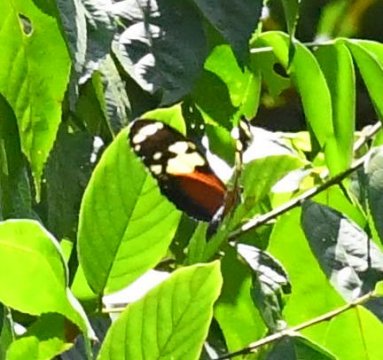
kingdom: Animalia
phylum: Arthropoda
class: Insecta
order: Lepidoptera
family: Nymphalidae
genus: Heliconius
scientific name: Heliconius hecale
